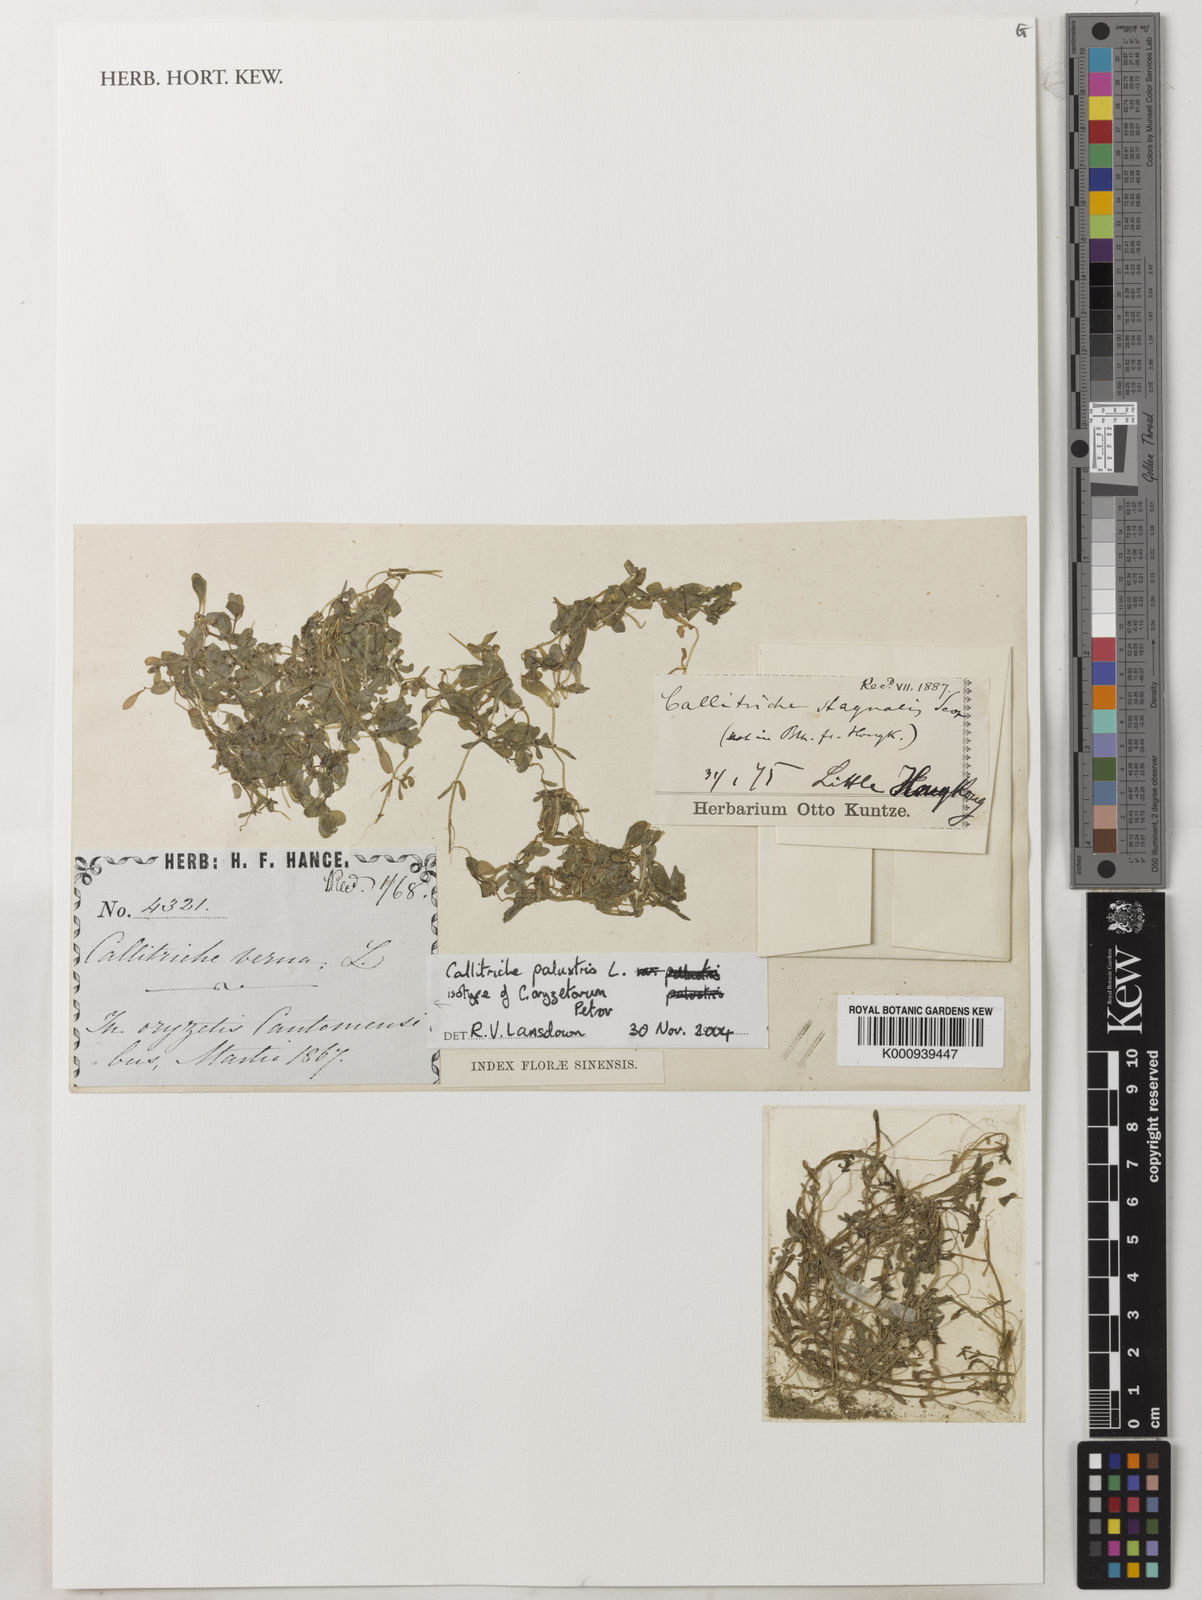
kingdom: Plantae
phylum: Tracheophyta
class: Magnoliopsida
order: Lamiales
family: Plantaginaceae
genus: Callitriche
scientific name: Callitriche palustris
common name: Spring water-starwort
